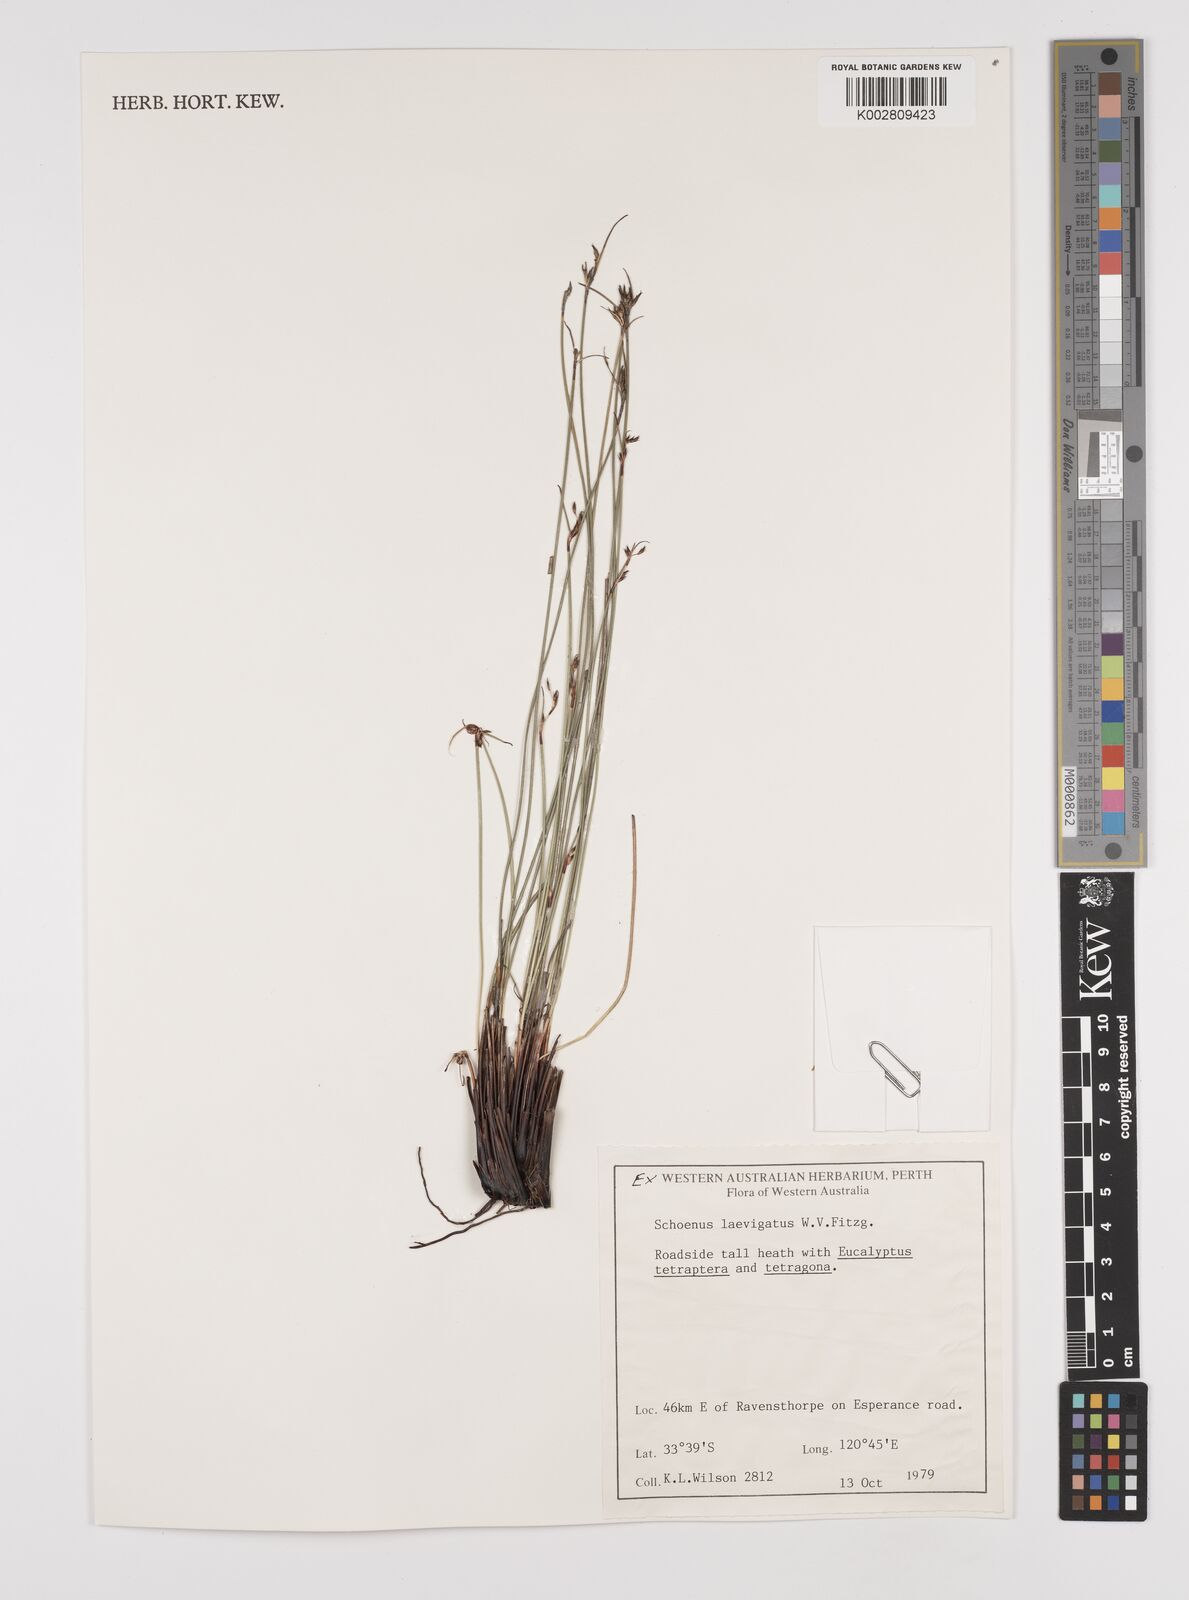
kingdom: Plantae
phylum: Tracheophyta
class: Liliopsida
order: Poales
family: Cyperaceae
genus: Schoenus
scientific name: Schoenus laevigatus
